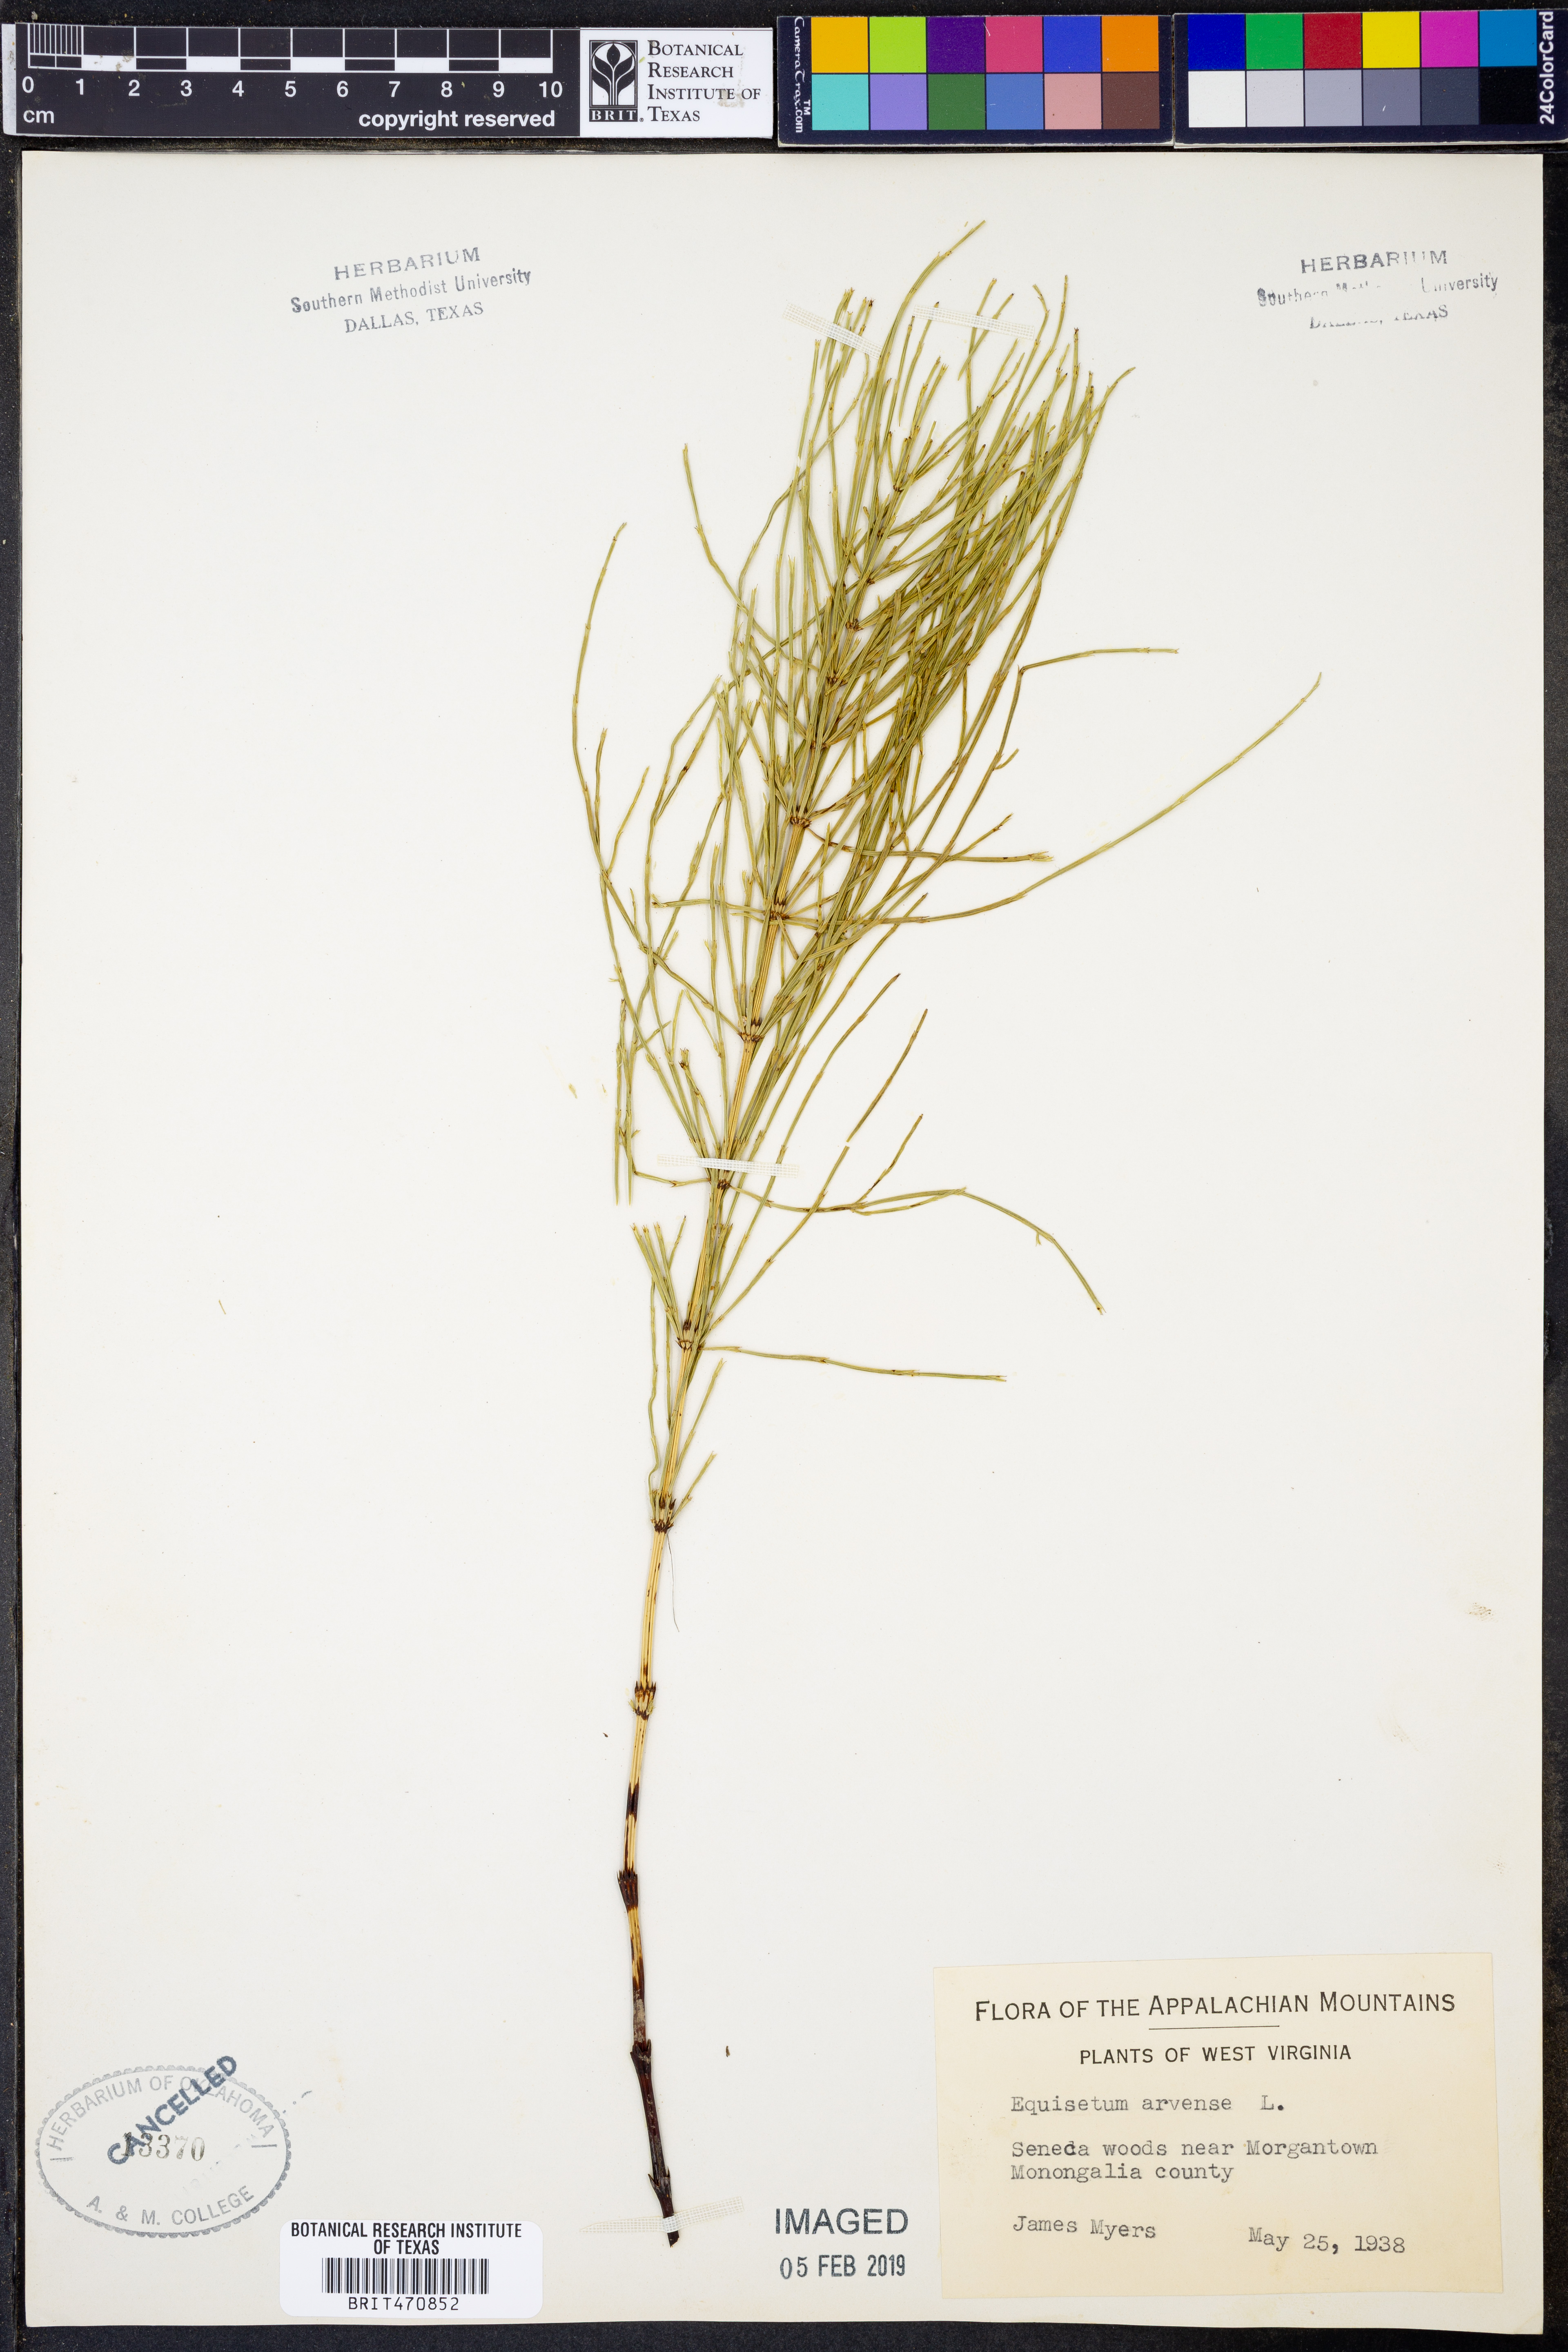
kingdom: Plantae
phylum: Tracheophyta
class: Polypodiopsida
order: Equisetales
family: Equisetaceae
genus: Equisetum
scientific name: Equisetum arvense
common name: Field horsetail
